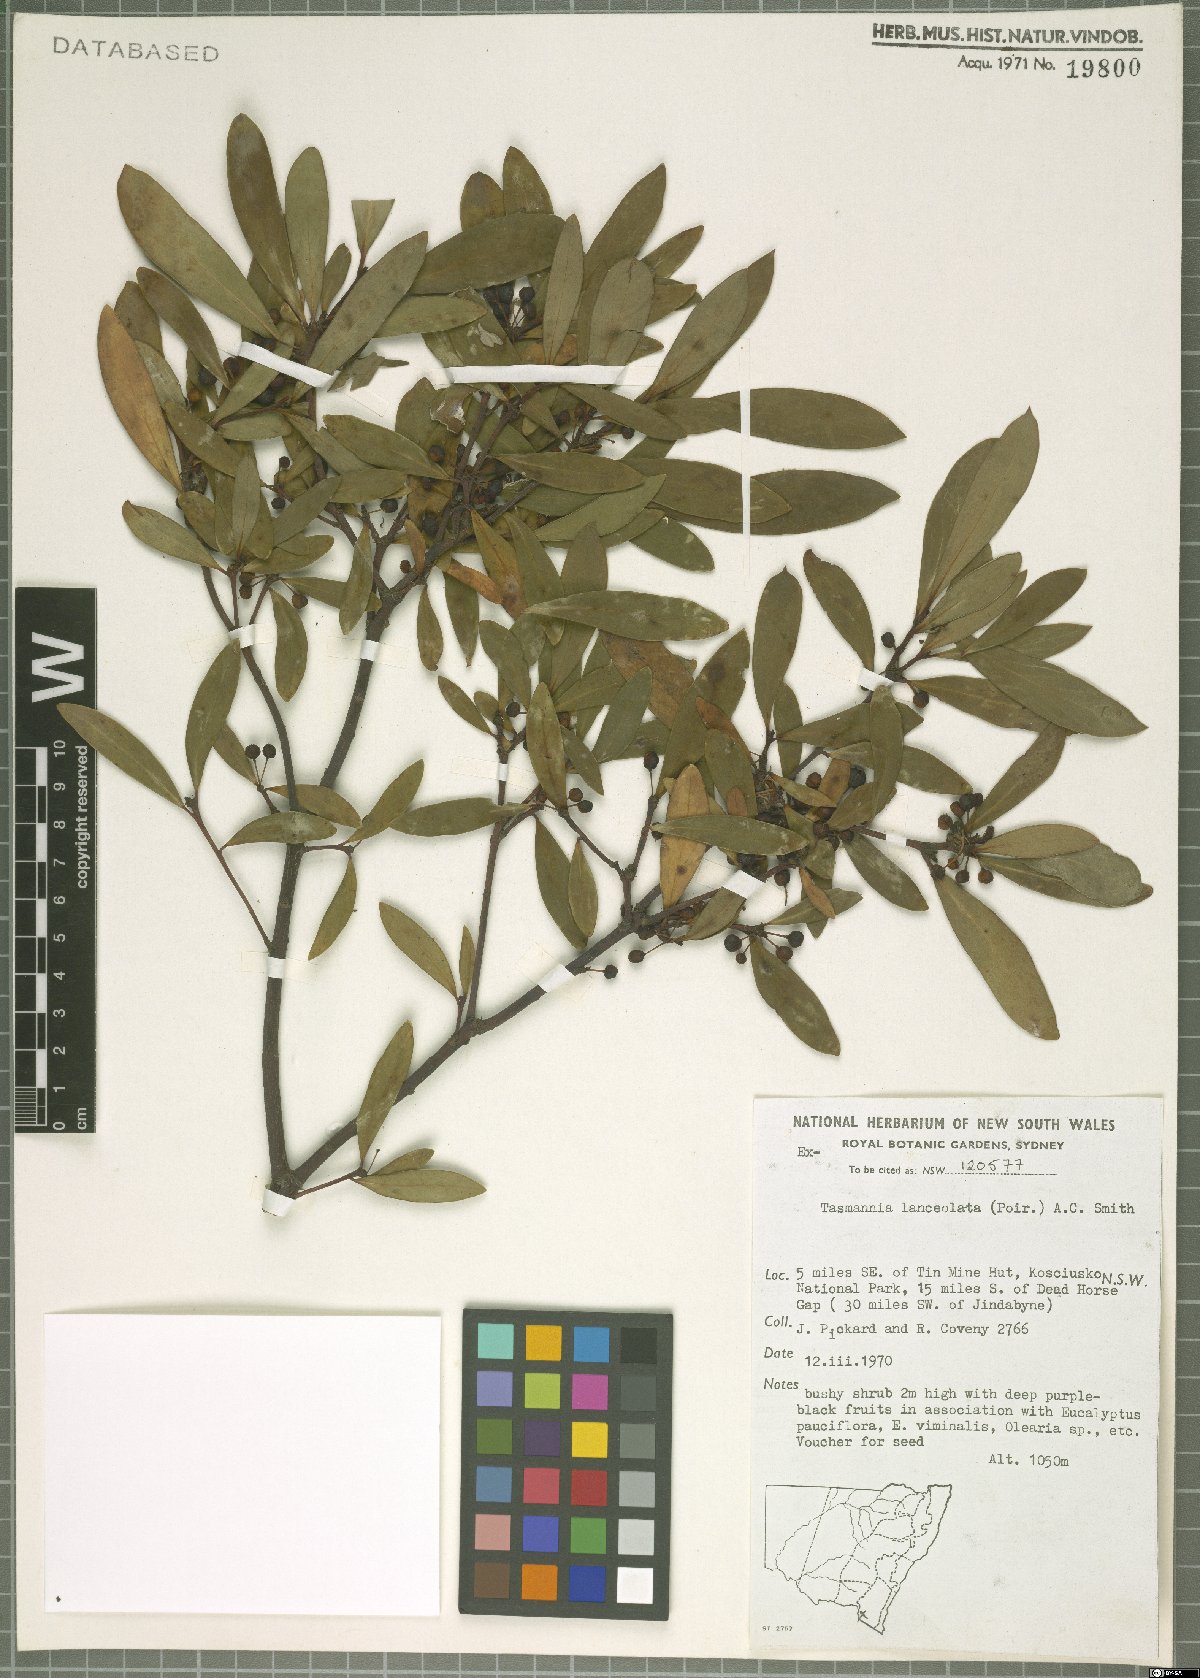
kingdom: Plantae
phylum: Tracheophyta
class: Magnoliopsida
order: Canellales
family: Winteraceae
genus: Drimys
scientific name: Drimys aromatica
